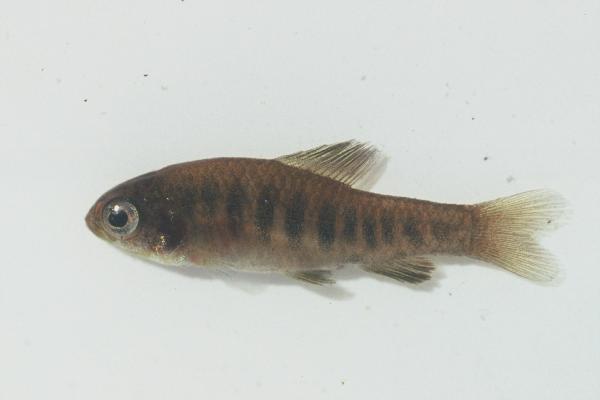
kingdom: Animalia
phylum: Chordata
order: Characiformes
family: Distichodontidae
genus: Neolebias
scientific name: Neolebias lozii
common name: Banded neolebias
